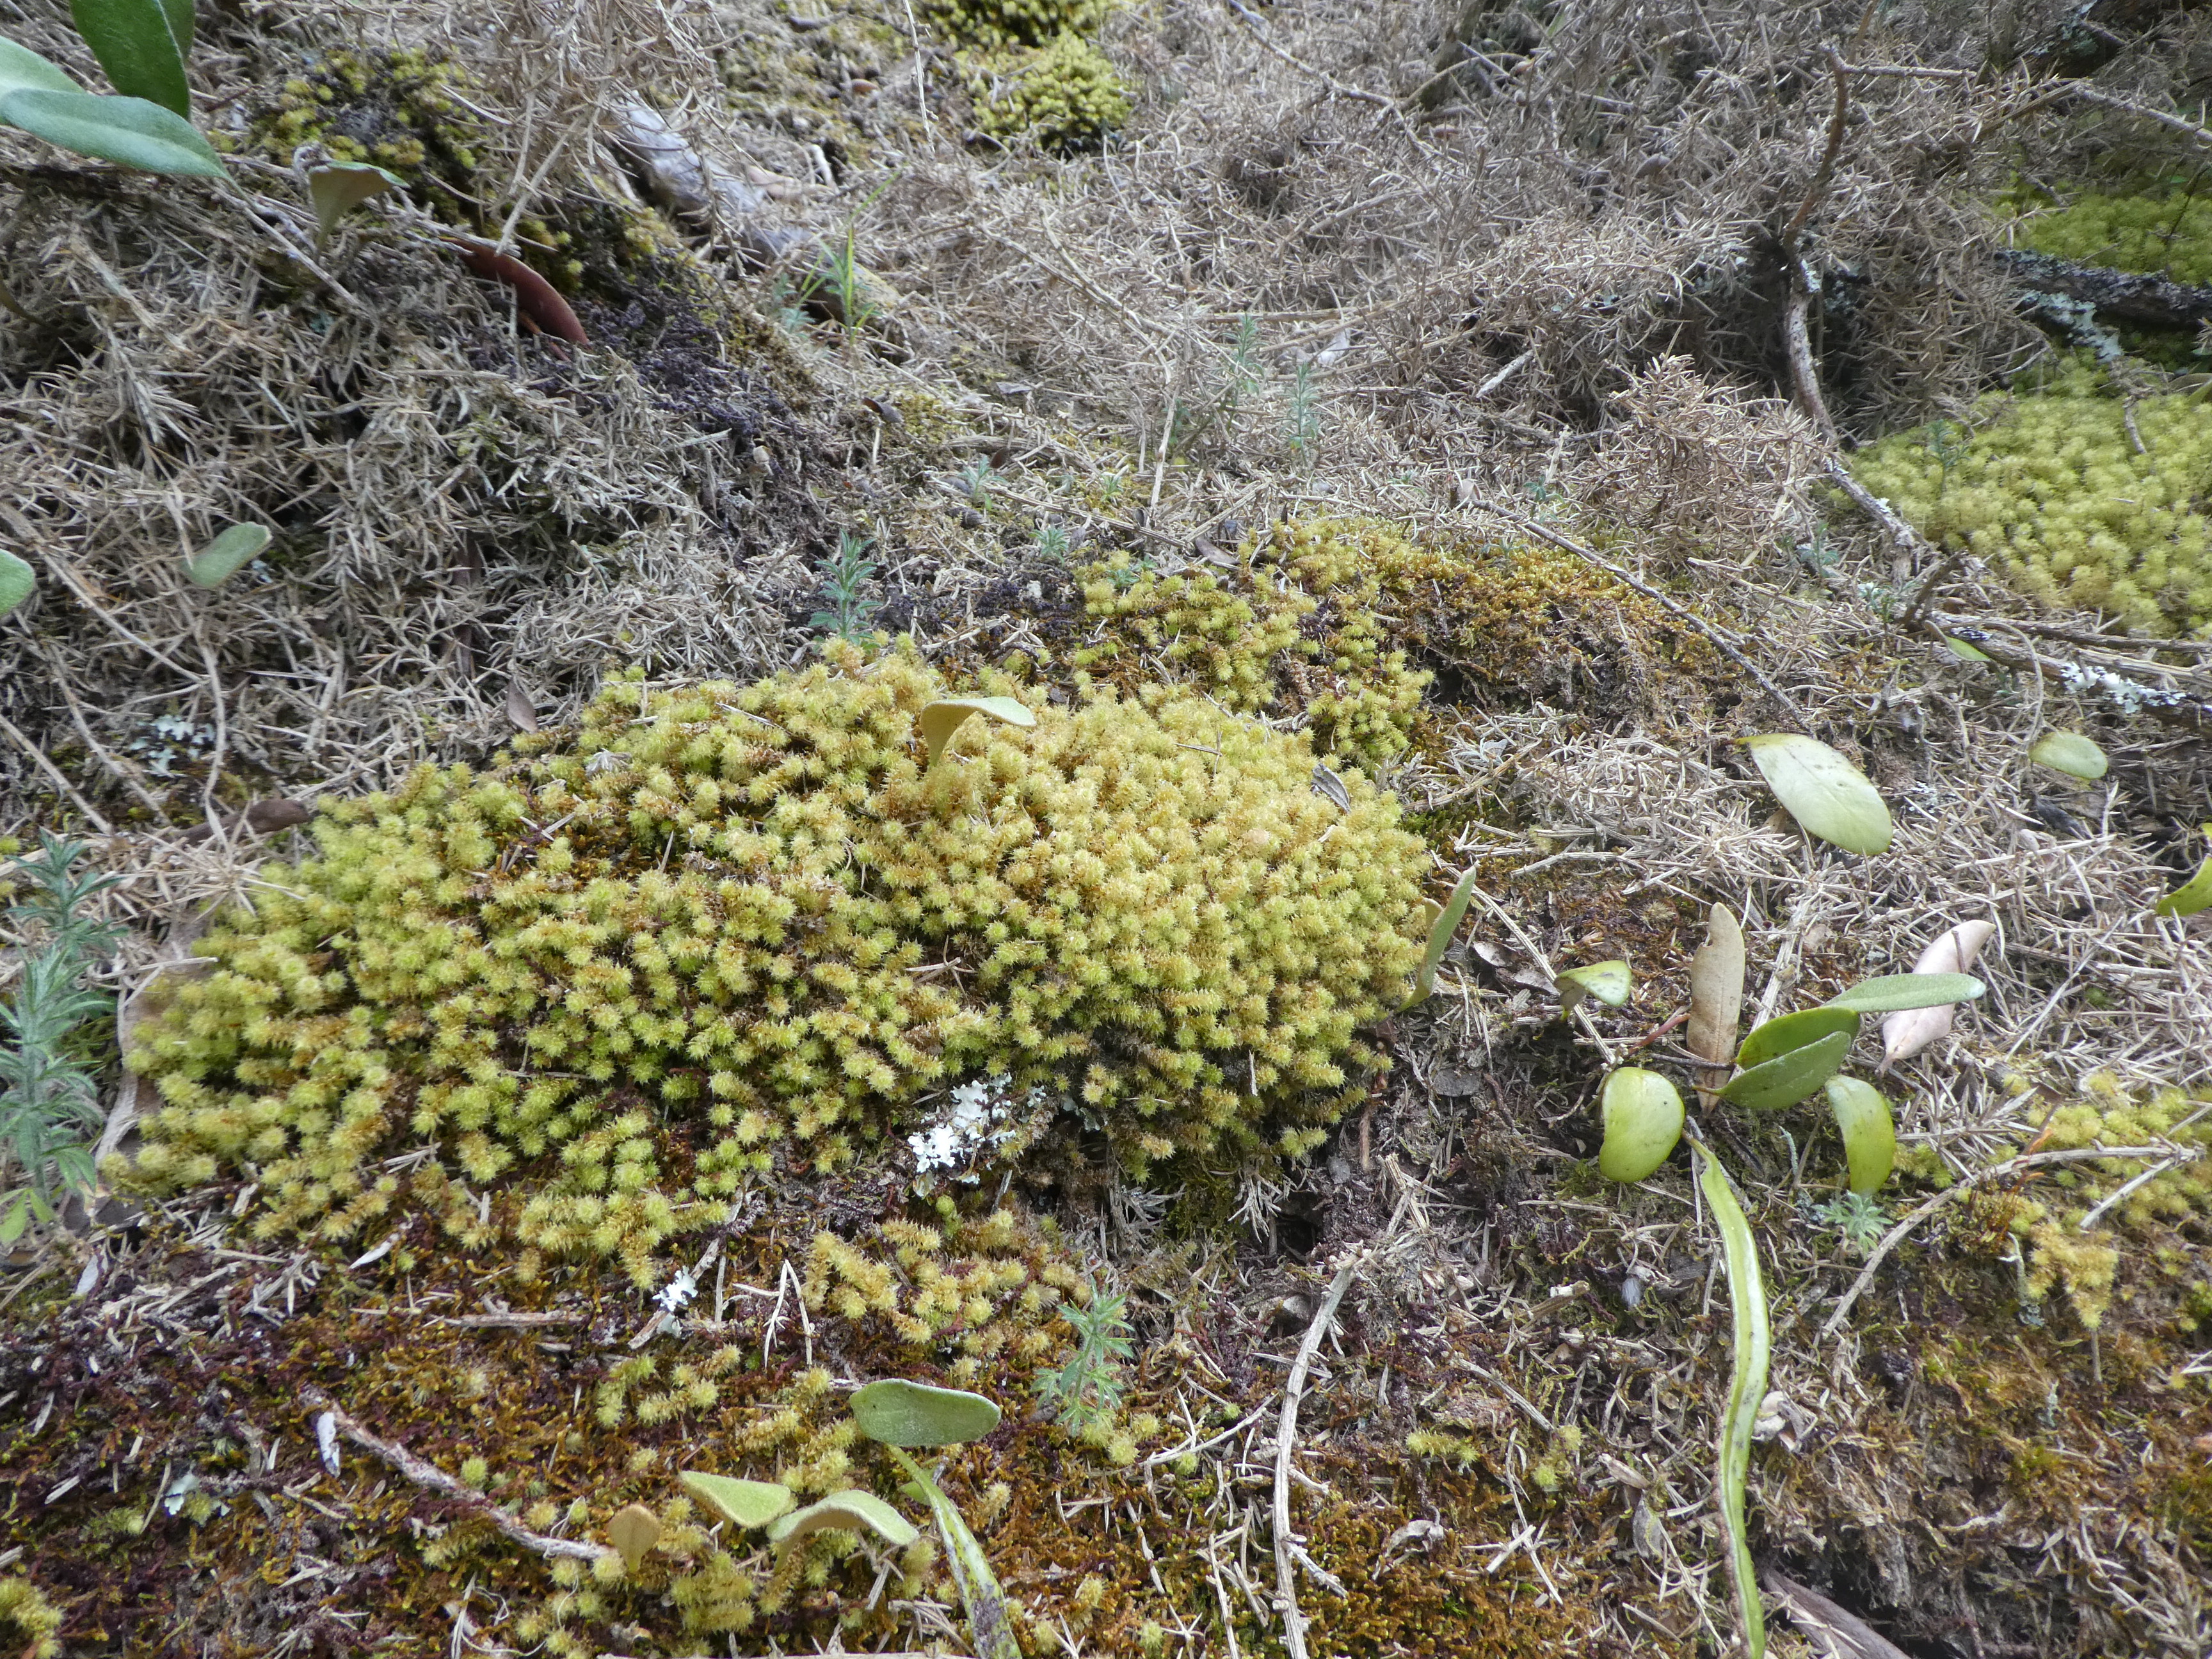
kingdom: Plantae
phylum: Bryophyta
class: Bryopsida
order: Ptychomniales
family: Ptychomniaceae
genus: Ptychomnion
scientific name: Ptychomnion aciculare
